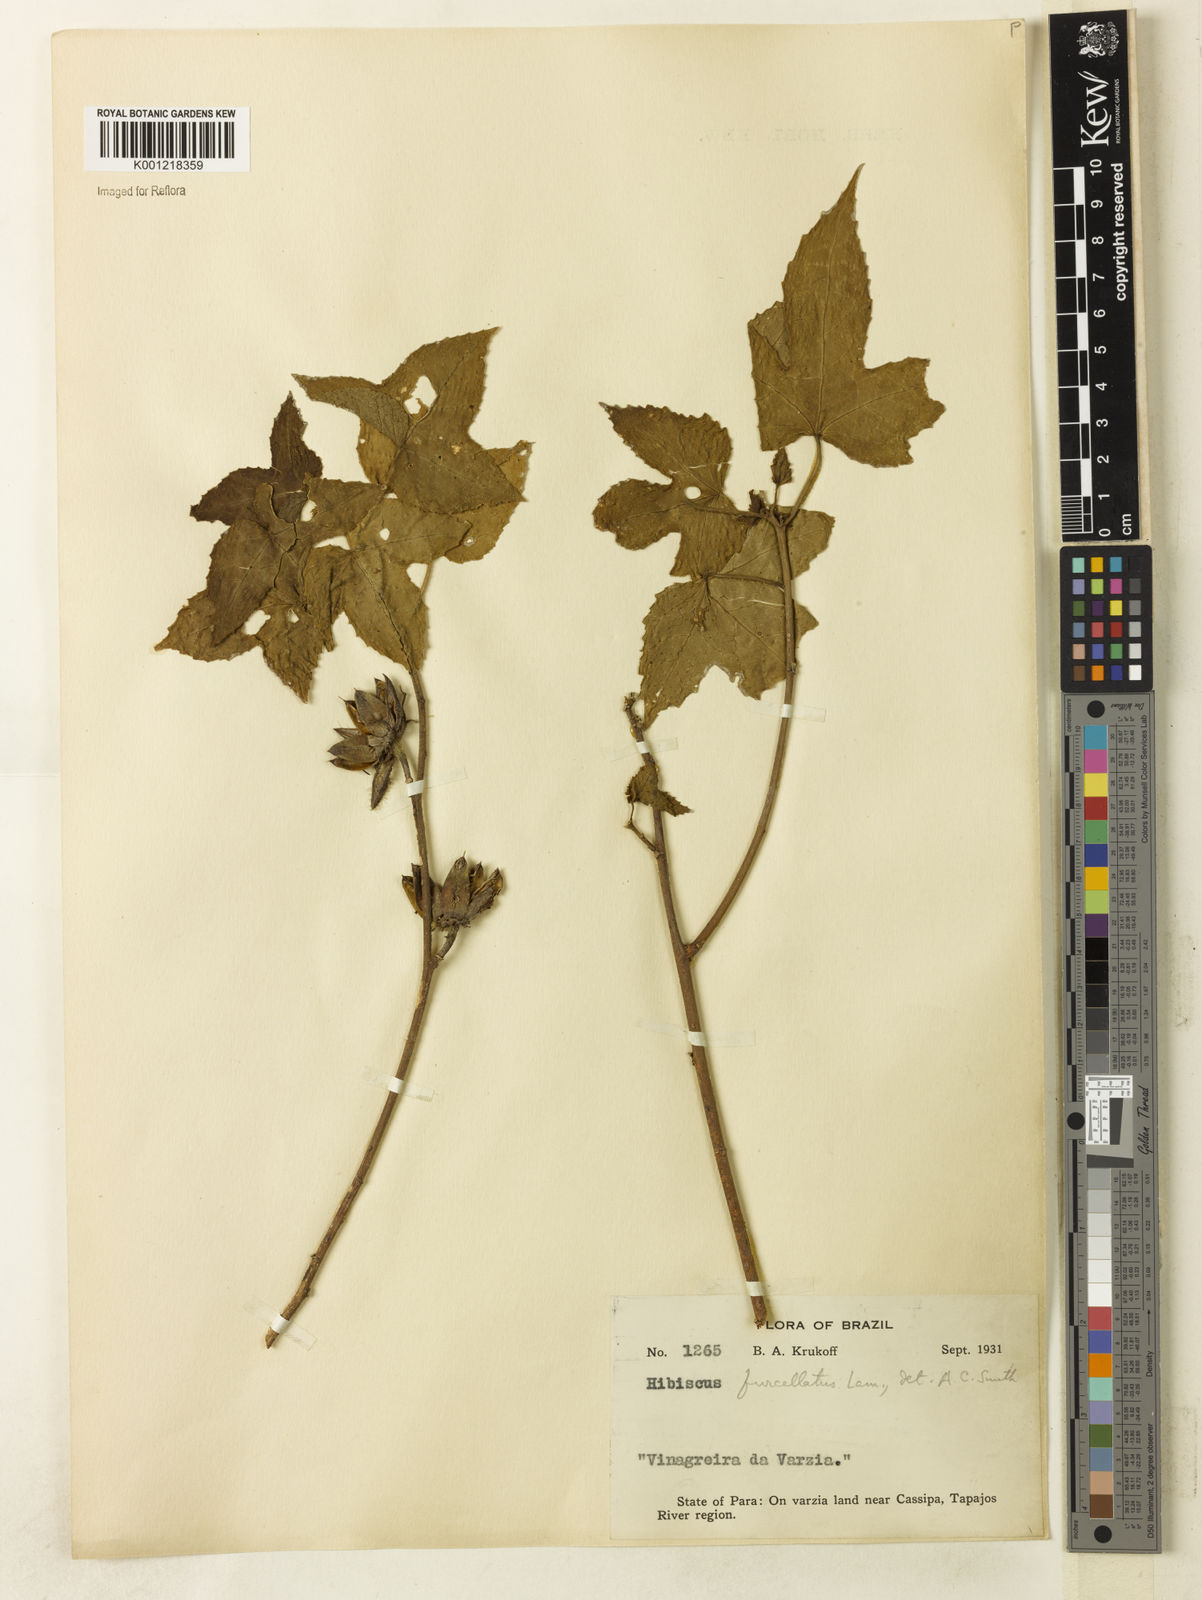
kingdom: Plantae
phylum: Tracheophyta
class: Magnoliopsida
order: Malvales
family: Malvaceae
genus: Hibiscus
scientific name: Hibiscus furcellatus
